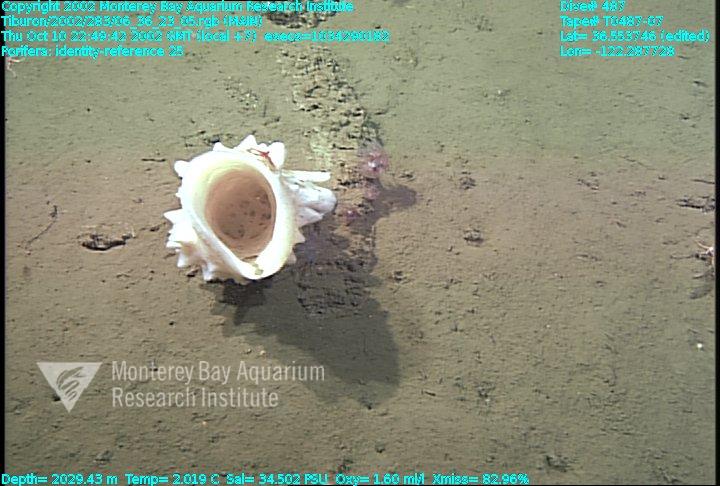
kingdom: Animalia
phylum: Porifera
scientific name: Porifera
